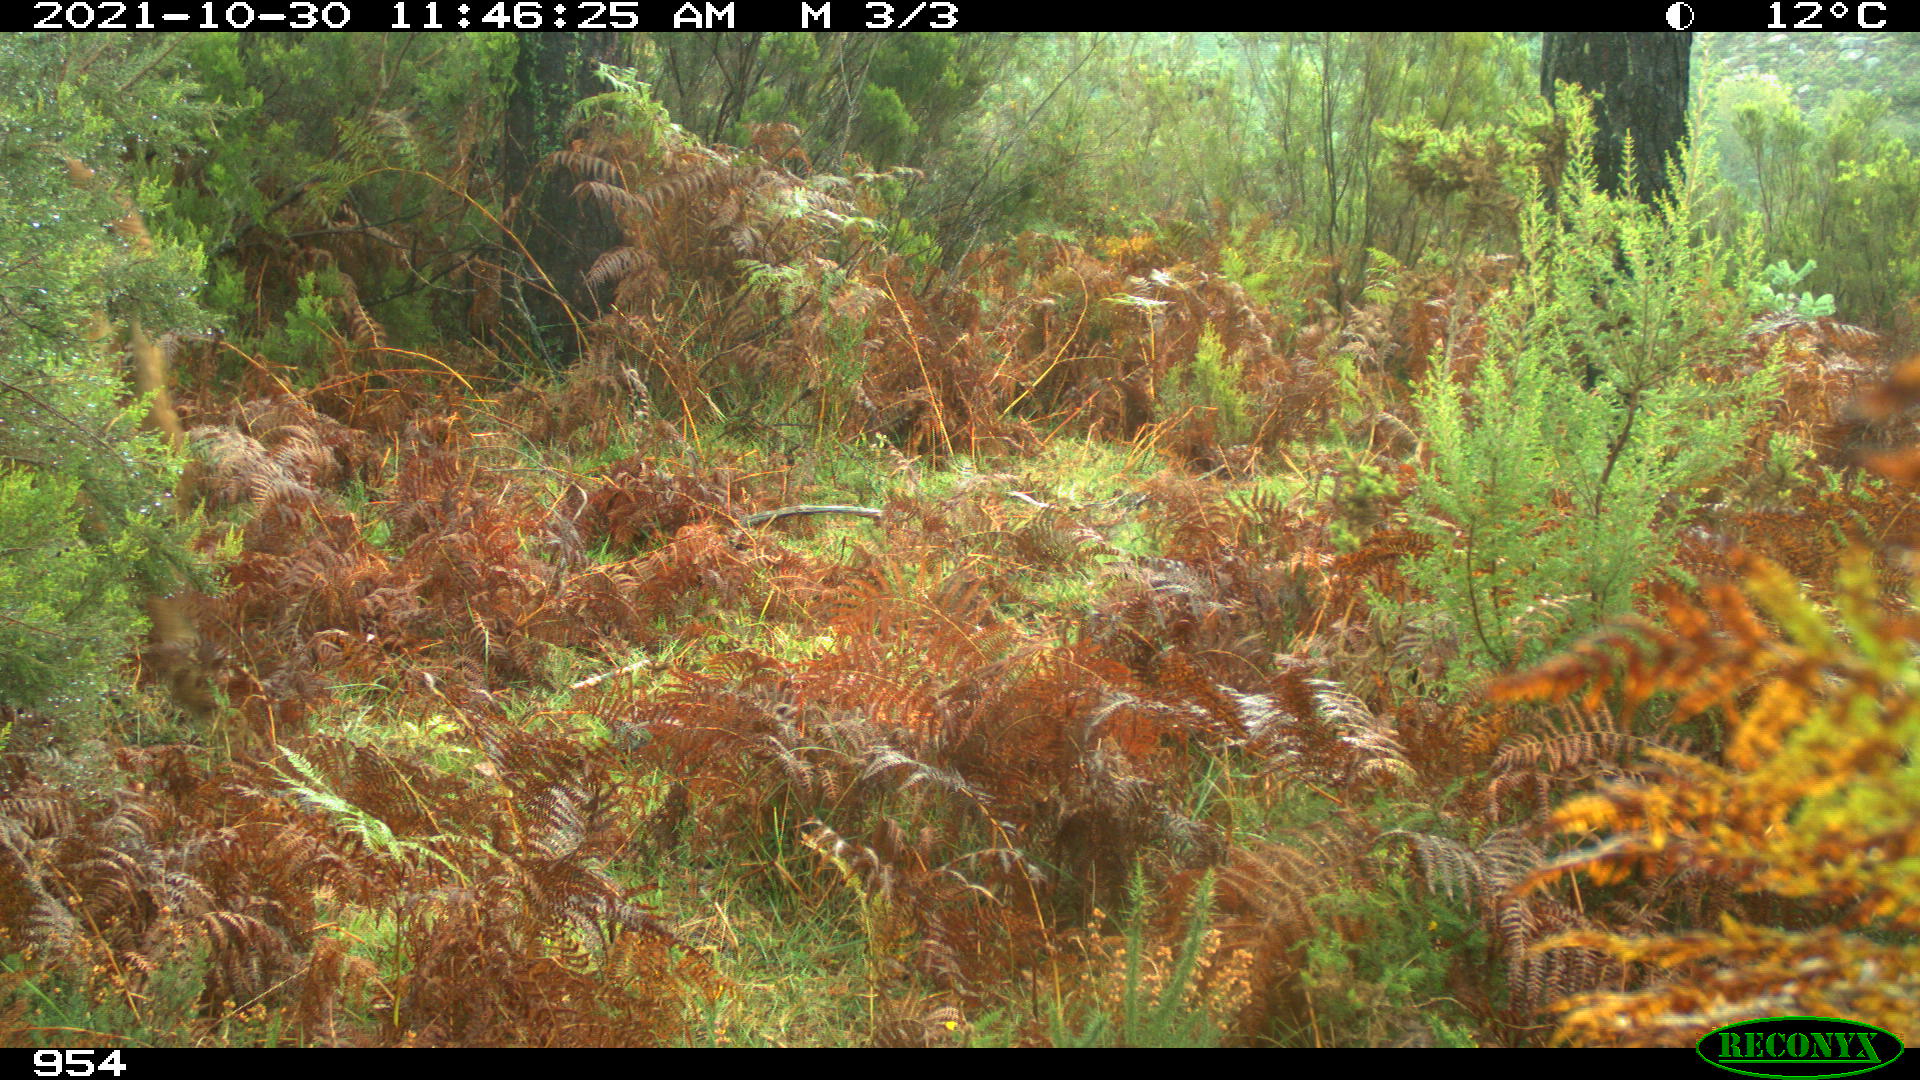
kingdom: Animalia
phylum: Chordata
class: Mammalia
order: Artiodactyla
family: Bovidae
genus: Bos
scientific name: Bos taurus
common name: Domesticated cattle
